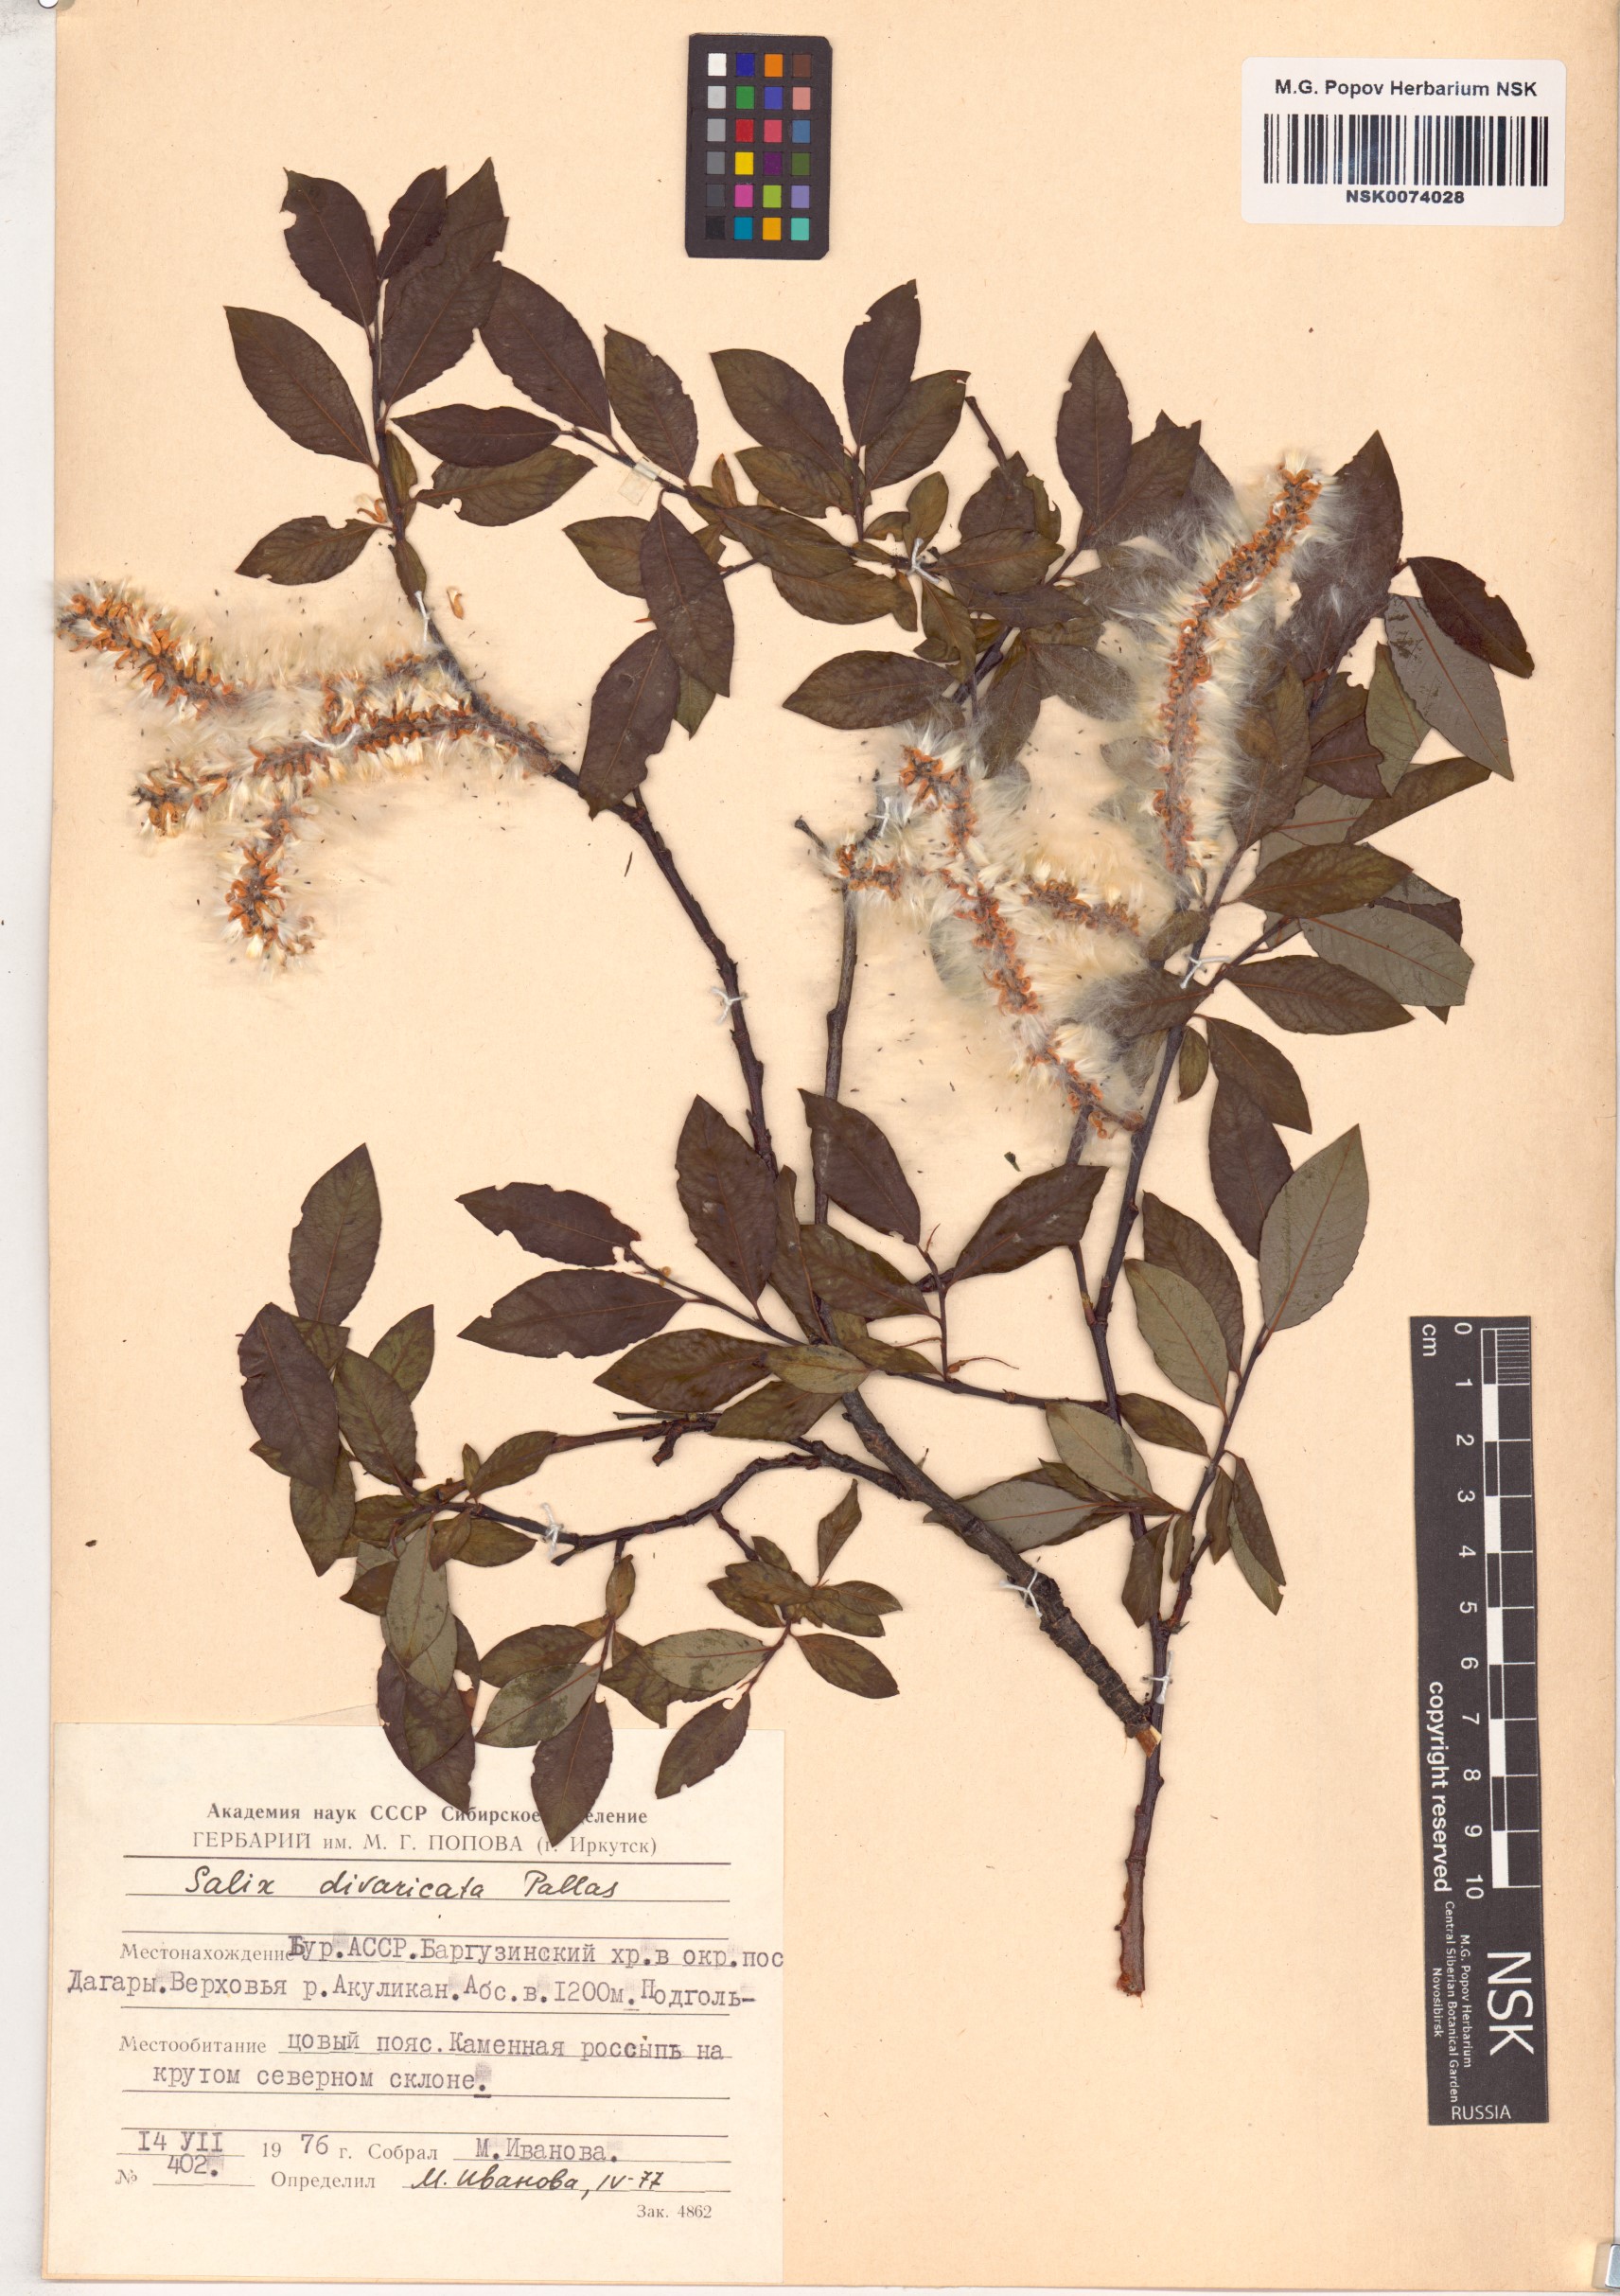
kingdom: Plantae
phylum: Tracheophyta
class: Magnoliopsida
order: Malpighiales
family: Salicaceae
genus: Salix
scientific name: Salix divaricata
